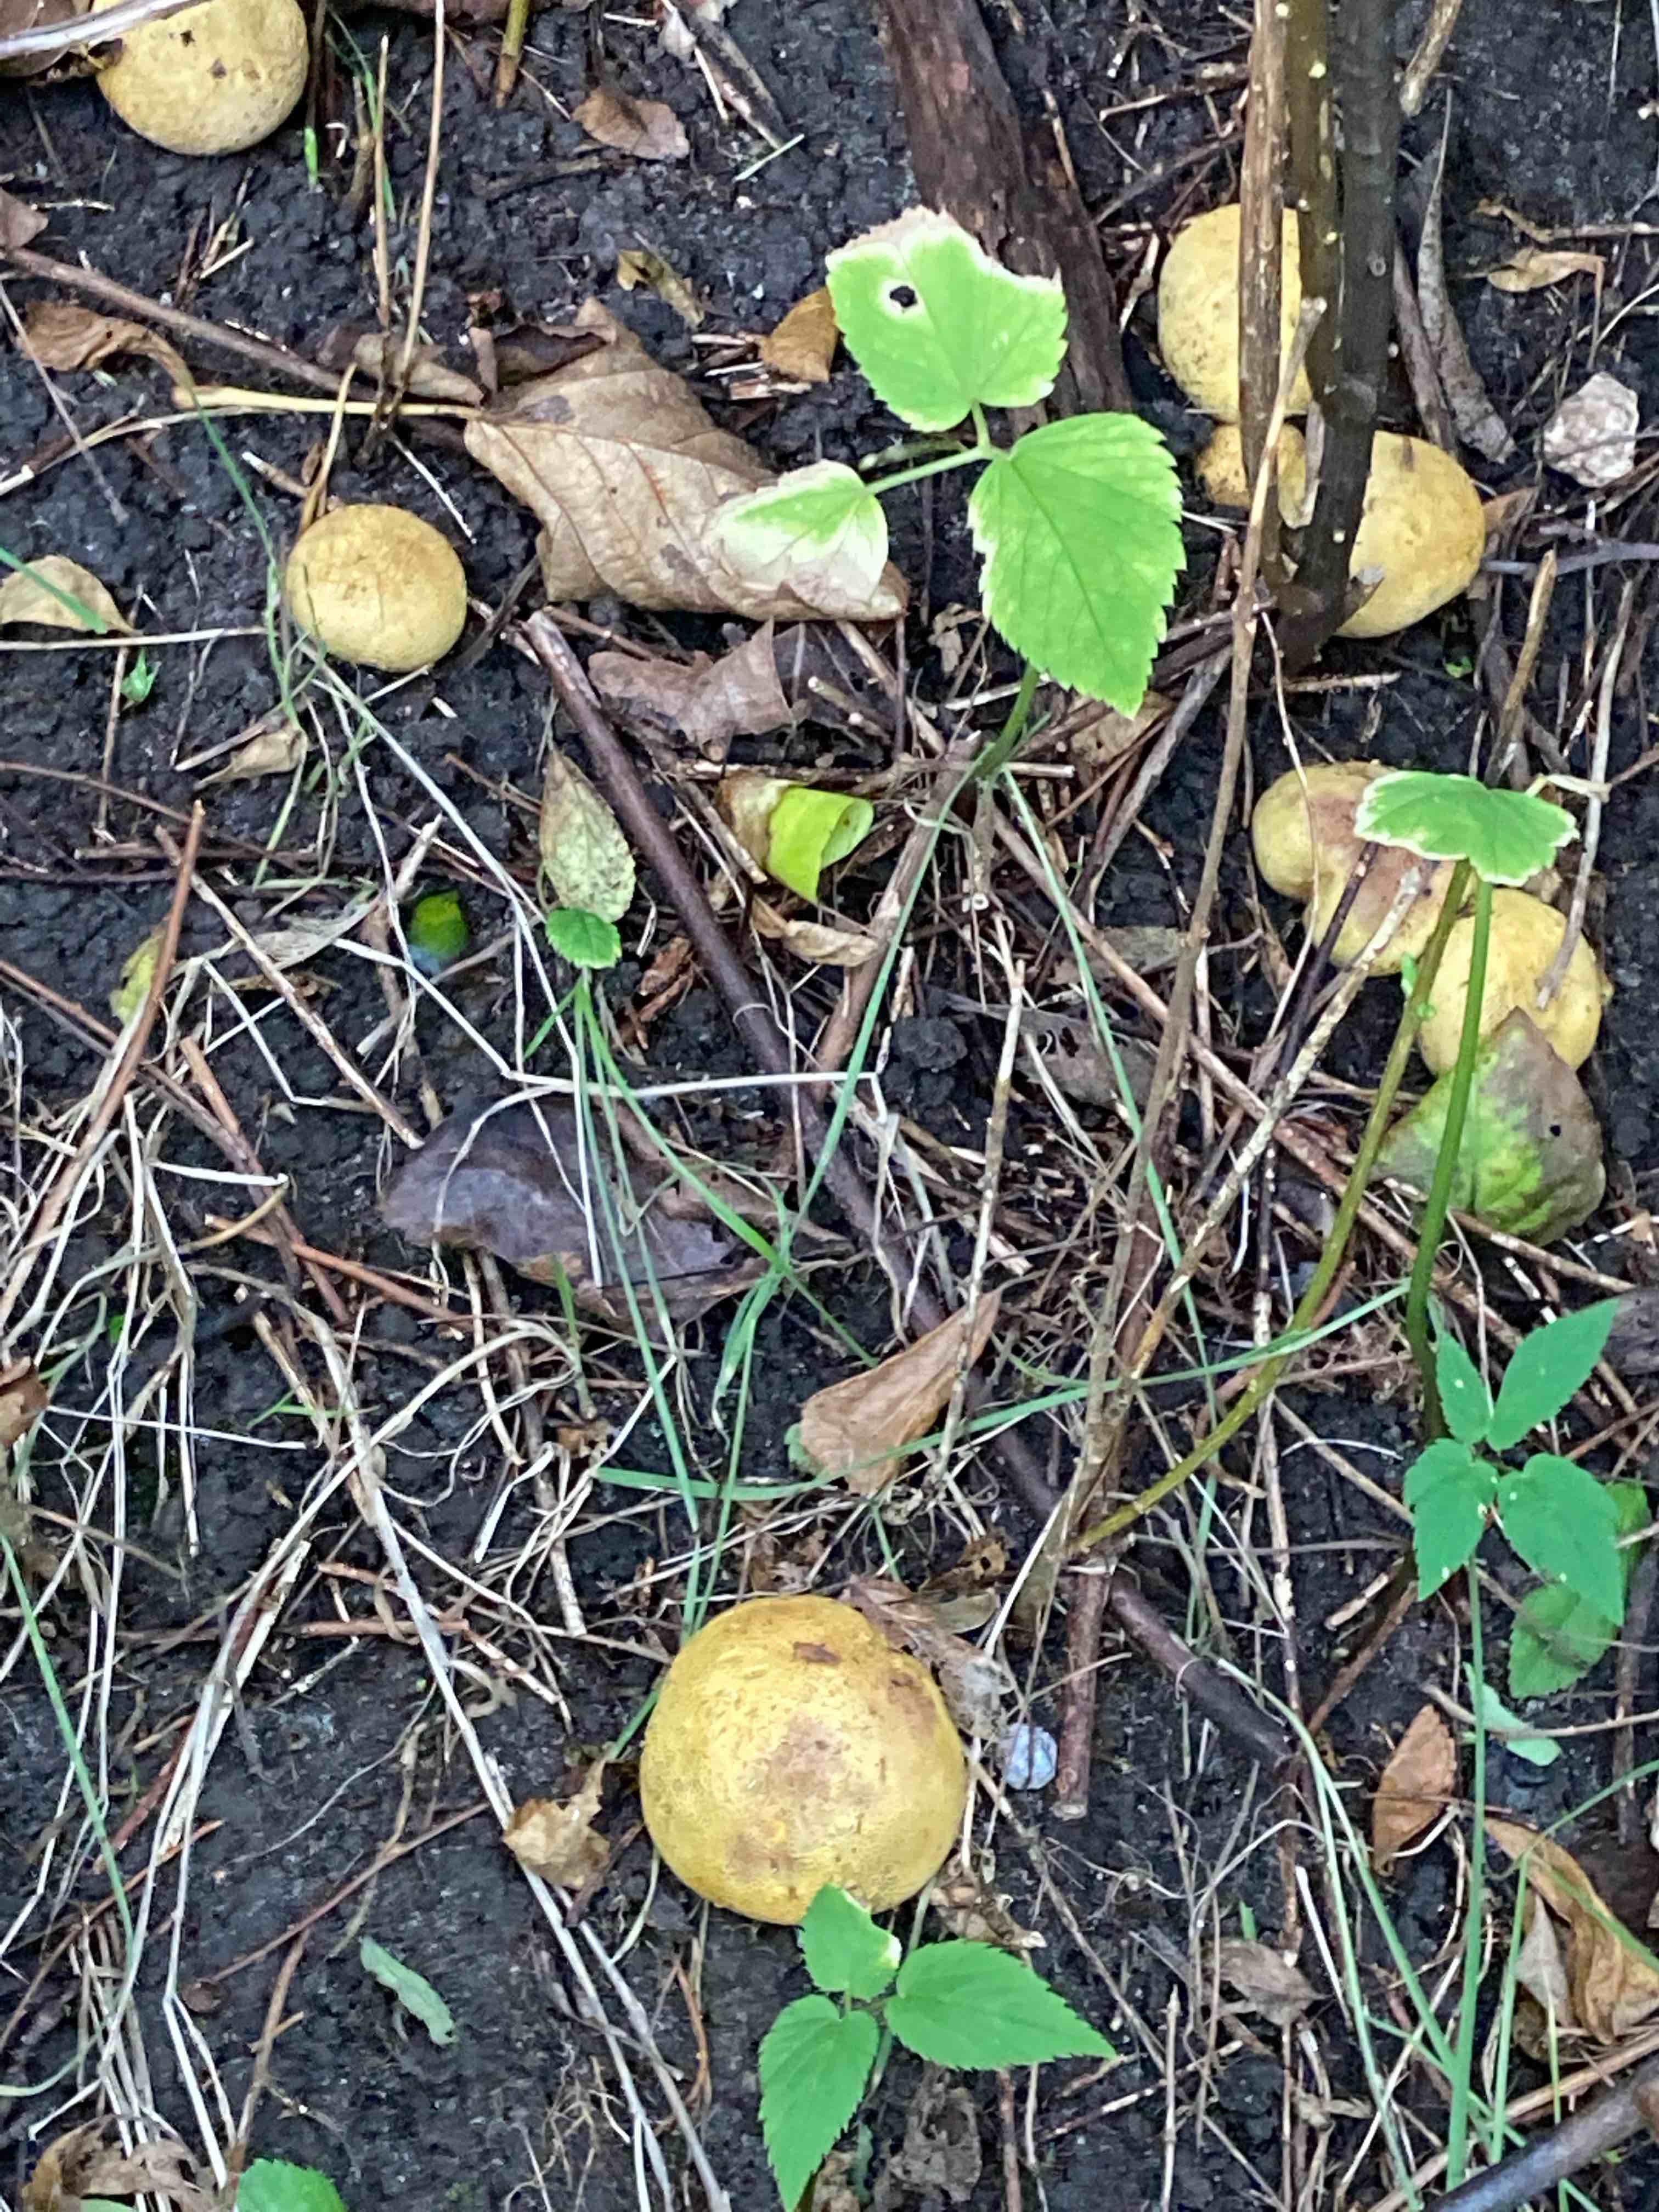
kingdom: Fungi
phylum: Basidiomycota
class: Agaricomycetes
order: Boletales
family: Sclerodermataceae
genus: Scleroderma
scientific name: Scleroderma
